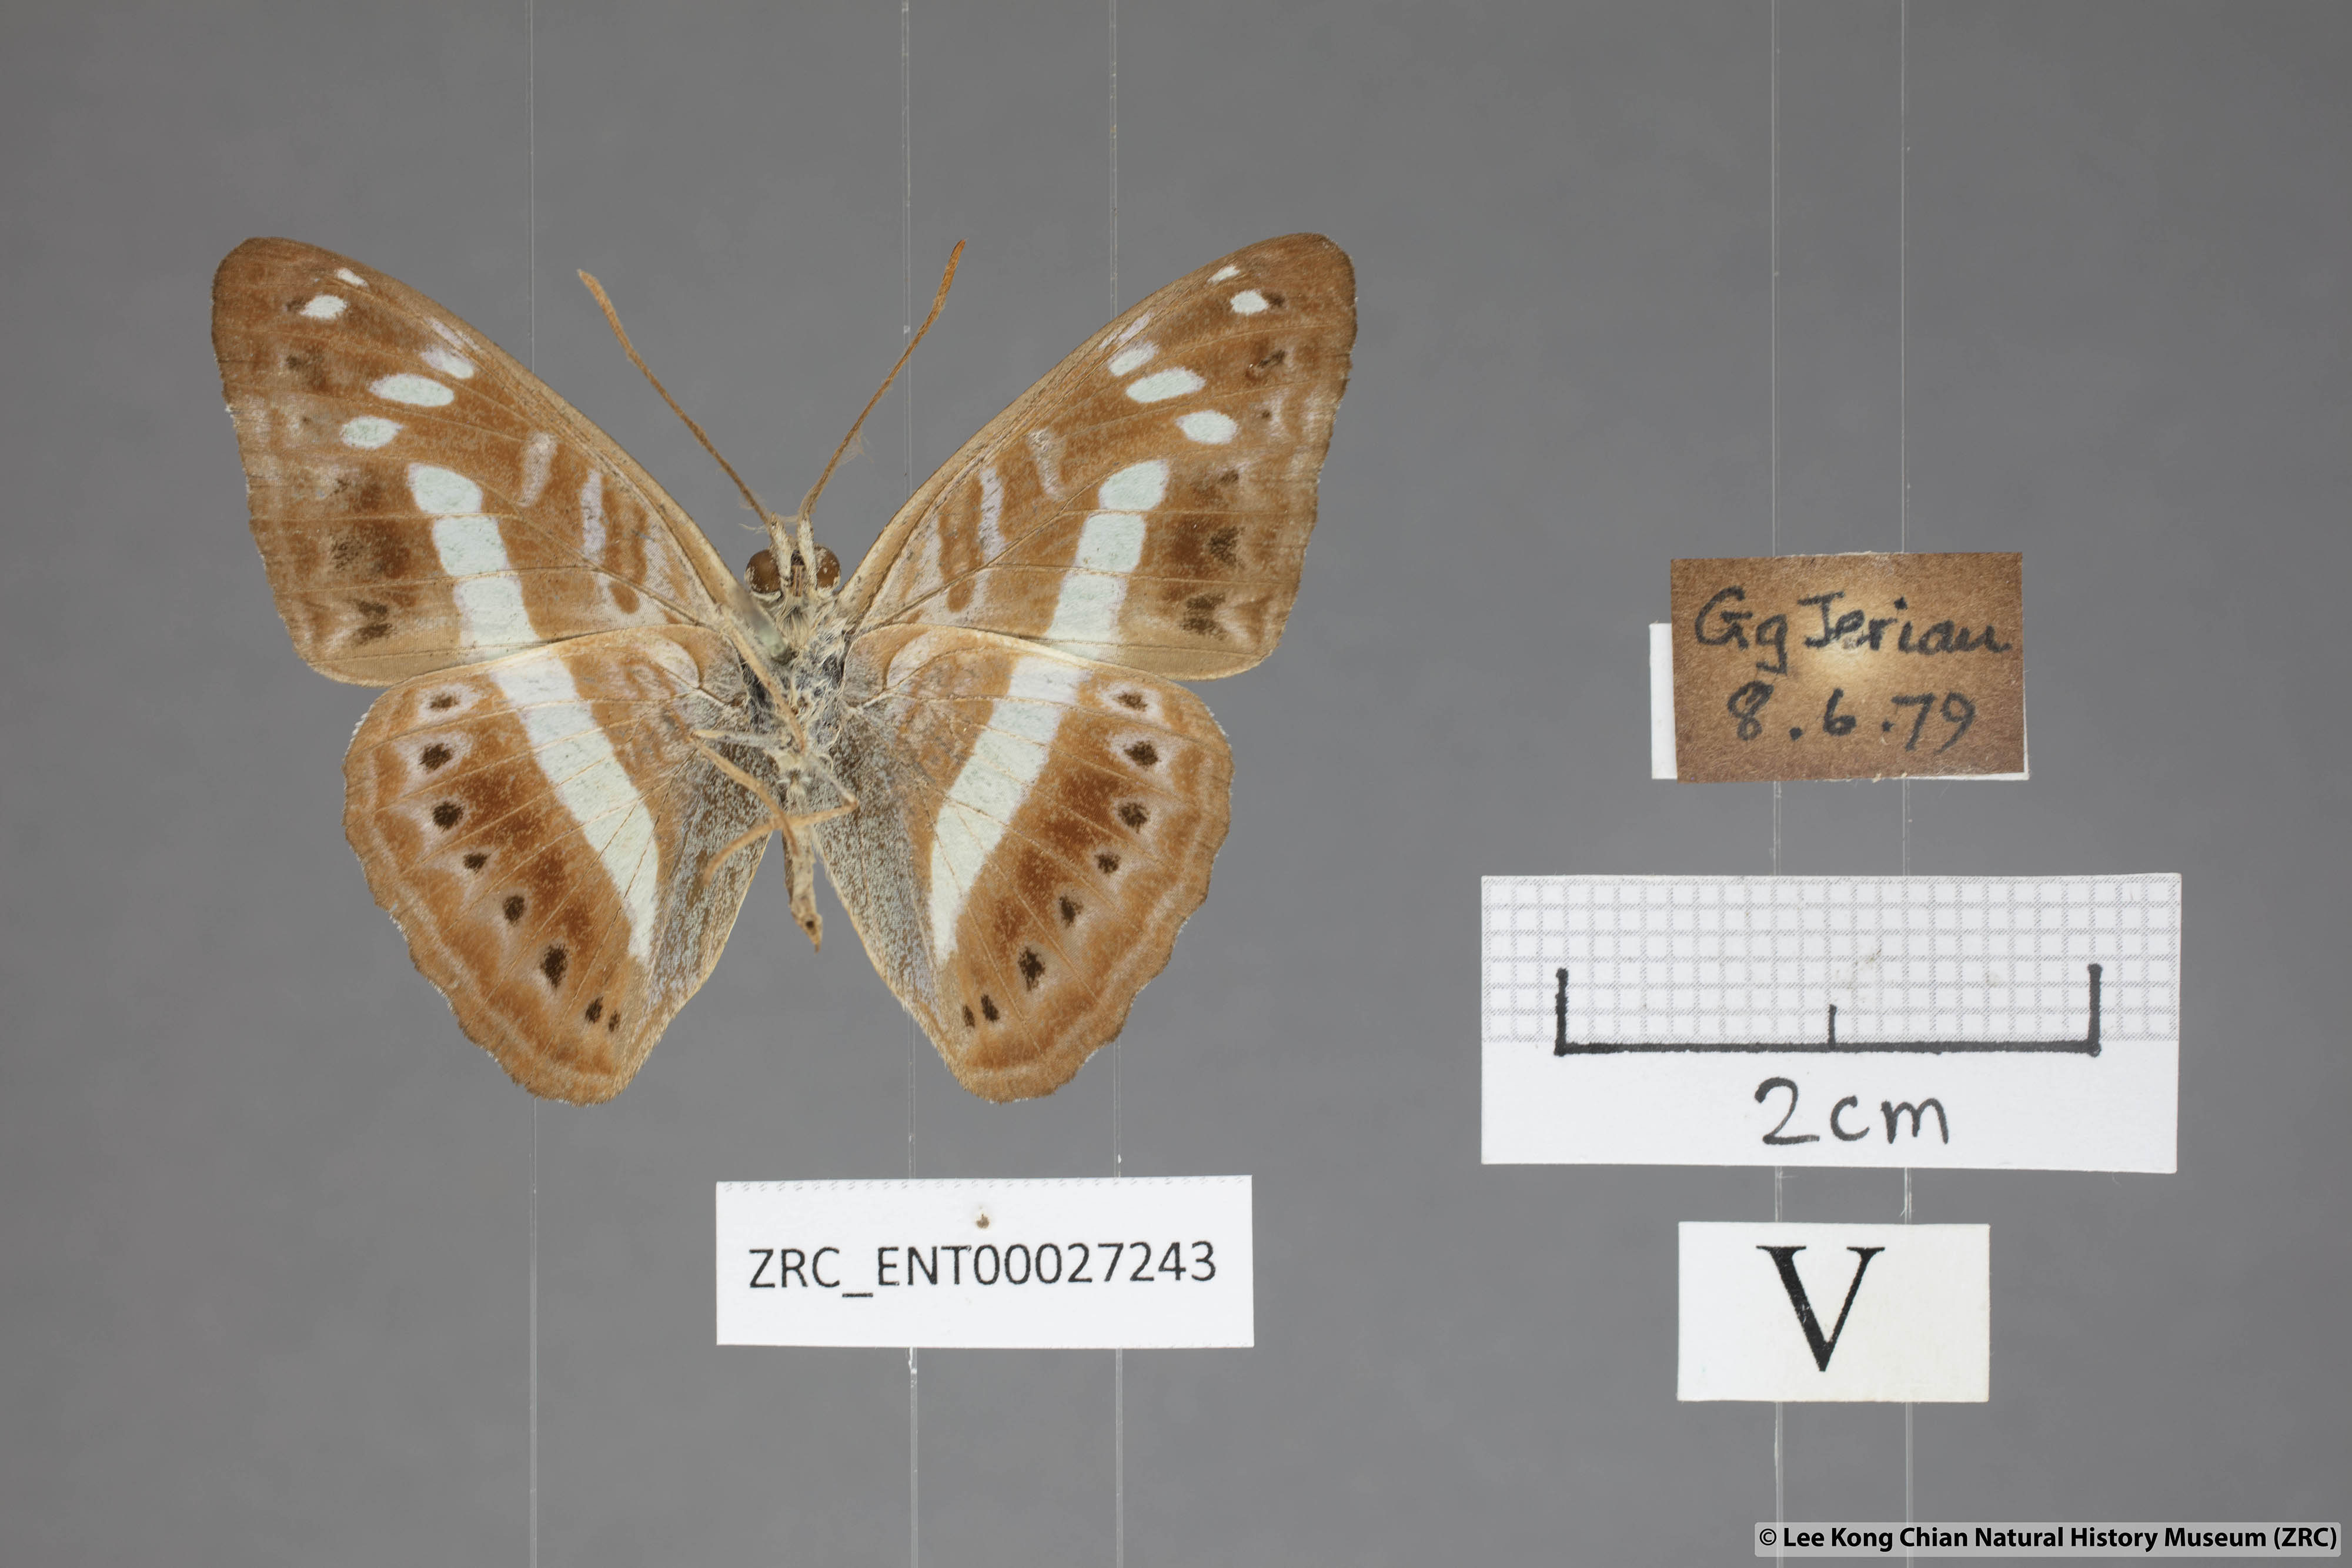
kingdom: Animalia
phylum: Arthropoda
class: Insecta
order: Lepidoptera
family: Nymphalidae
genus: Limenitis
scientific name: Limenitis
